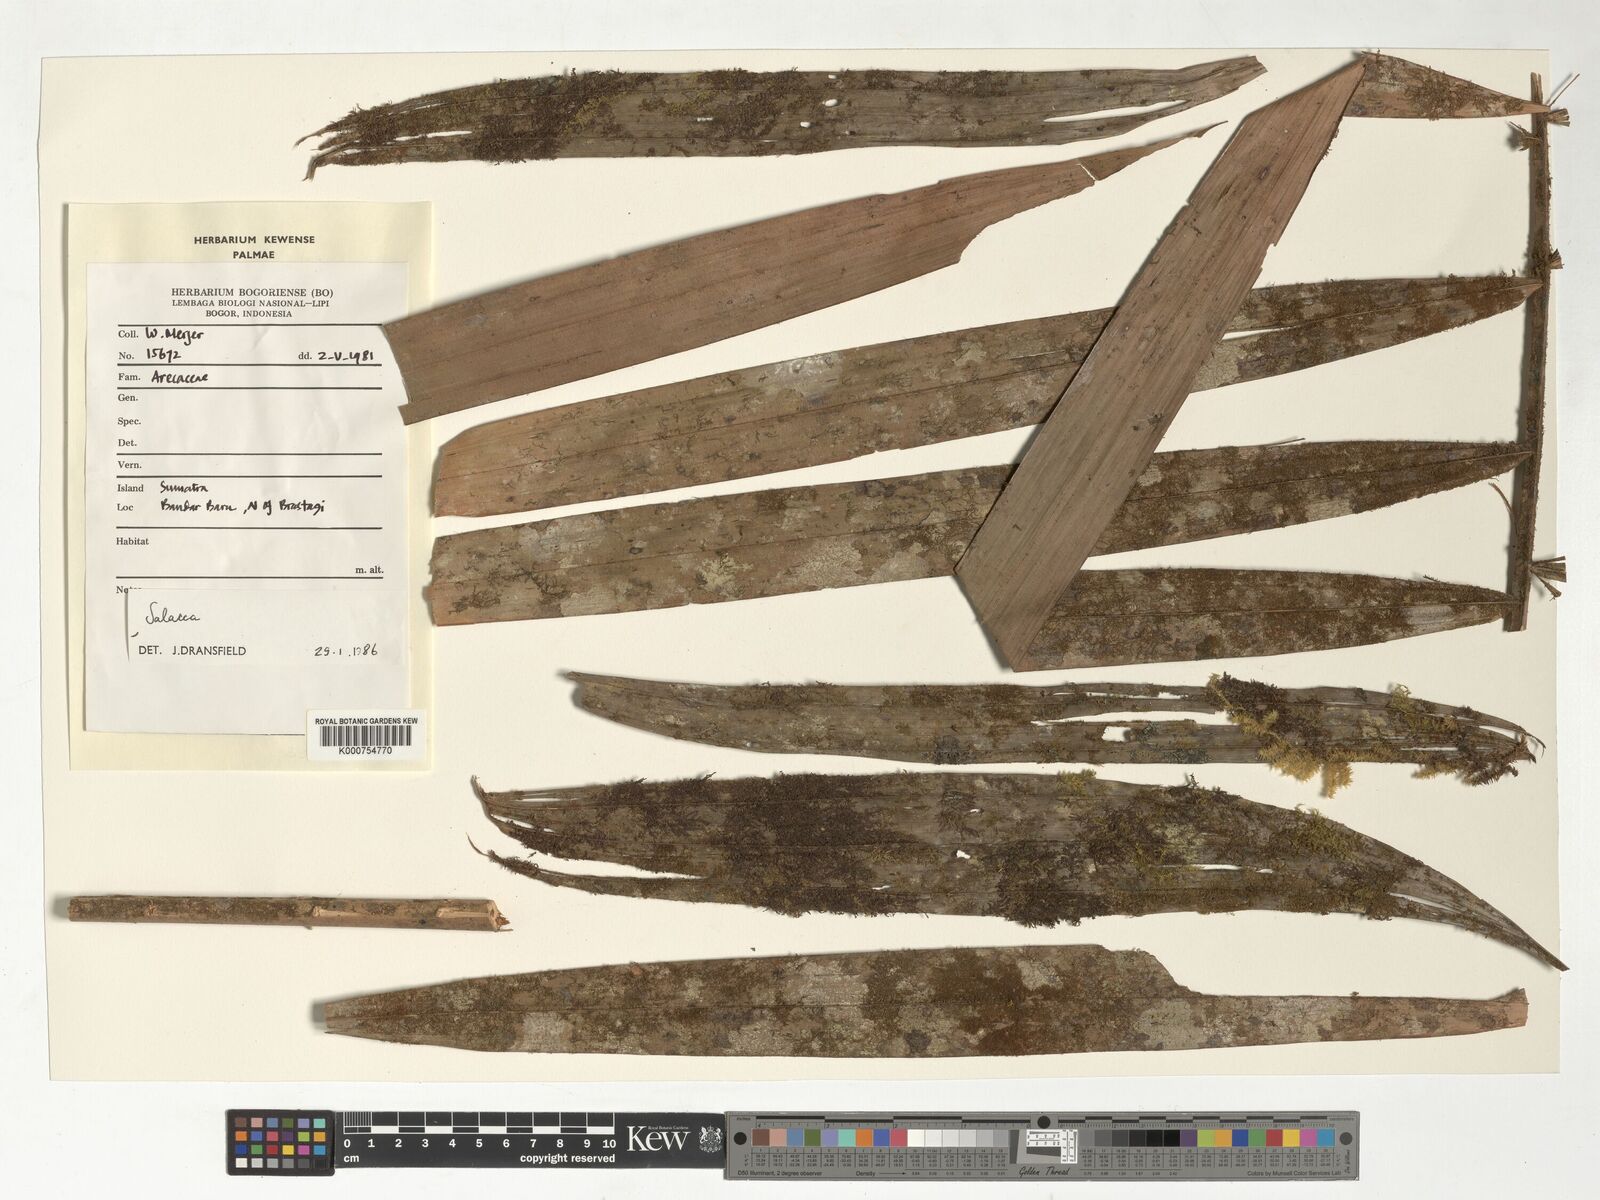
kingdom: Plantae
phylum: Tracheophyta
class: Liliopsida
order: Arecales
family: Arecaceae
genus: Salacca
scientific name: Salacca
